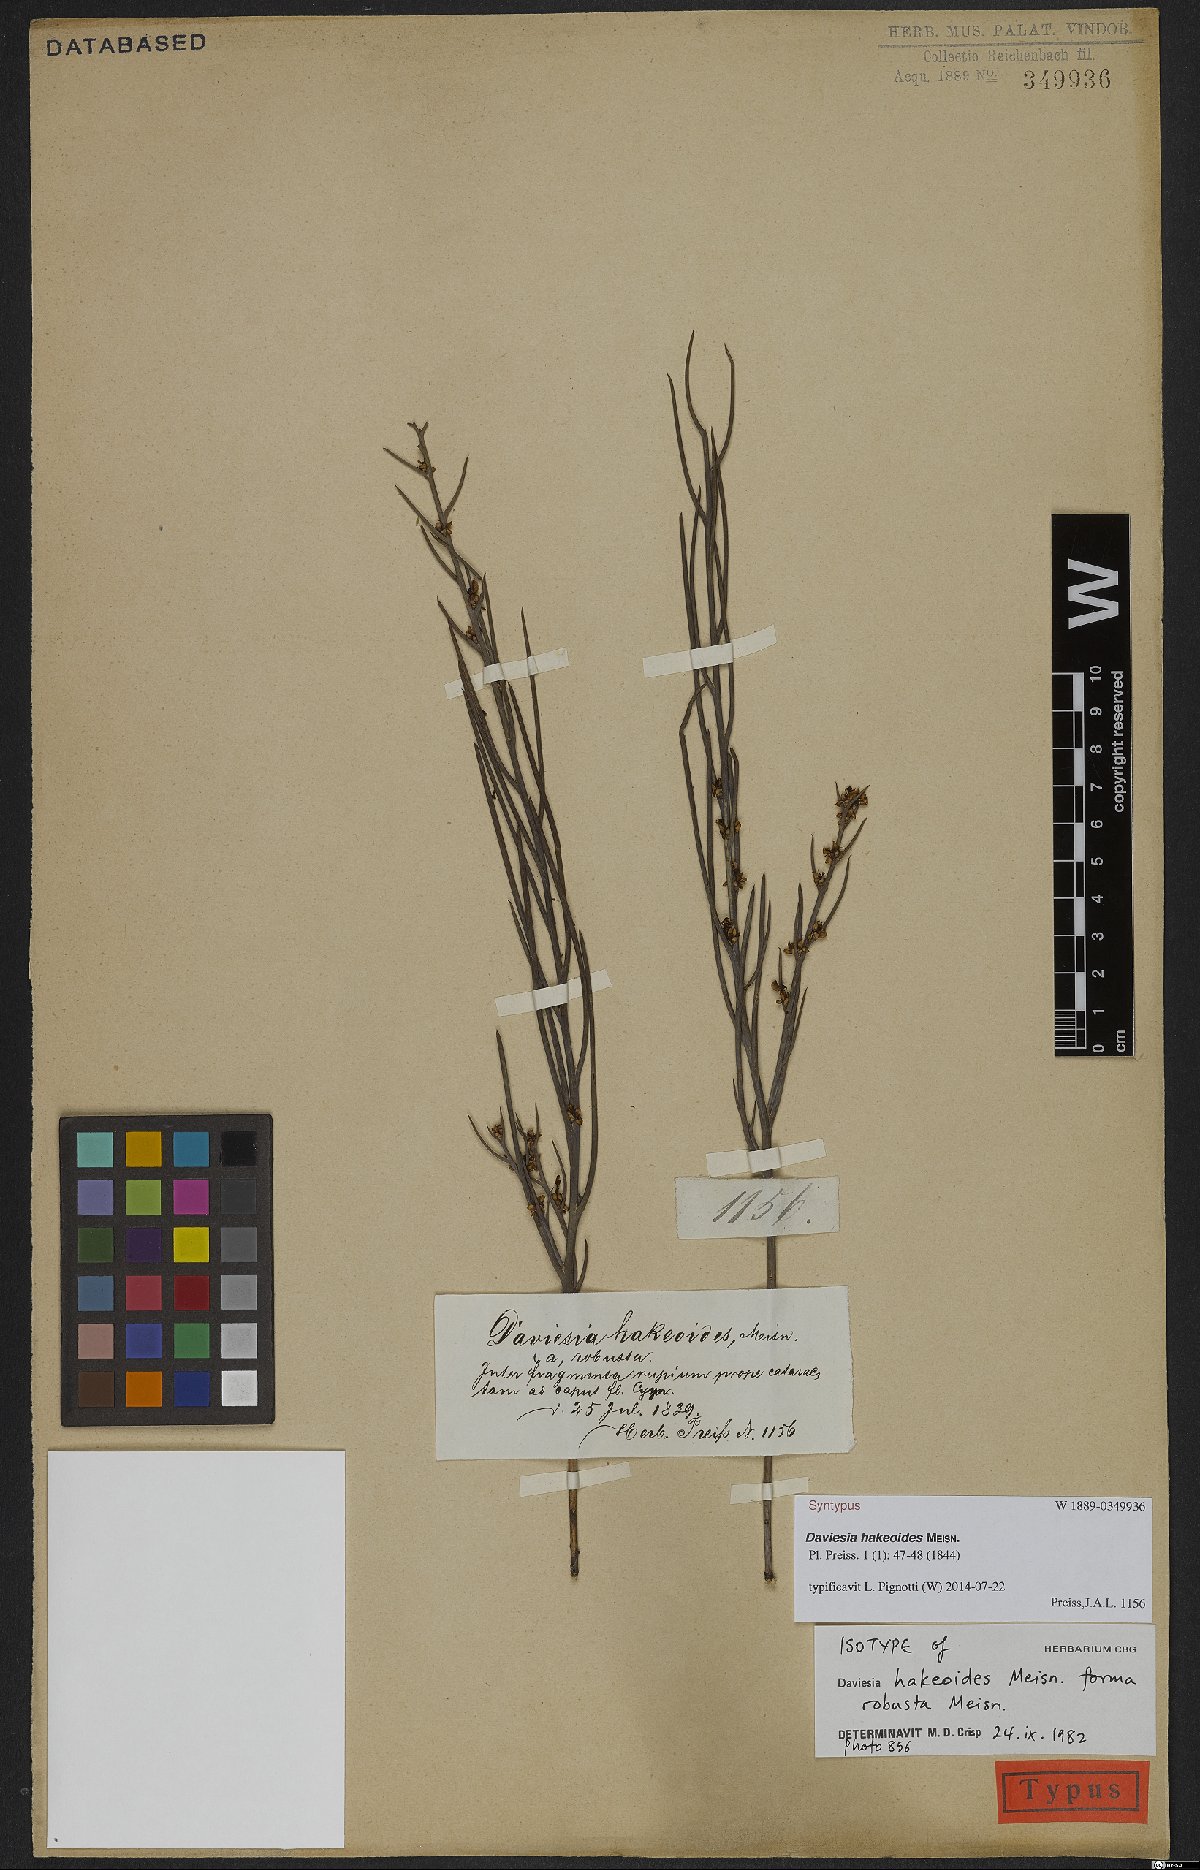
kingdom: Plantae
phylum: Tracheophyta
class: Magnoliopsida
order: Fabales
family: Fabaceae
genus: Daviesia
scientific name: Daviesia hakeoides
